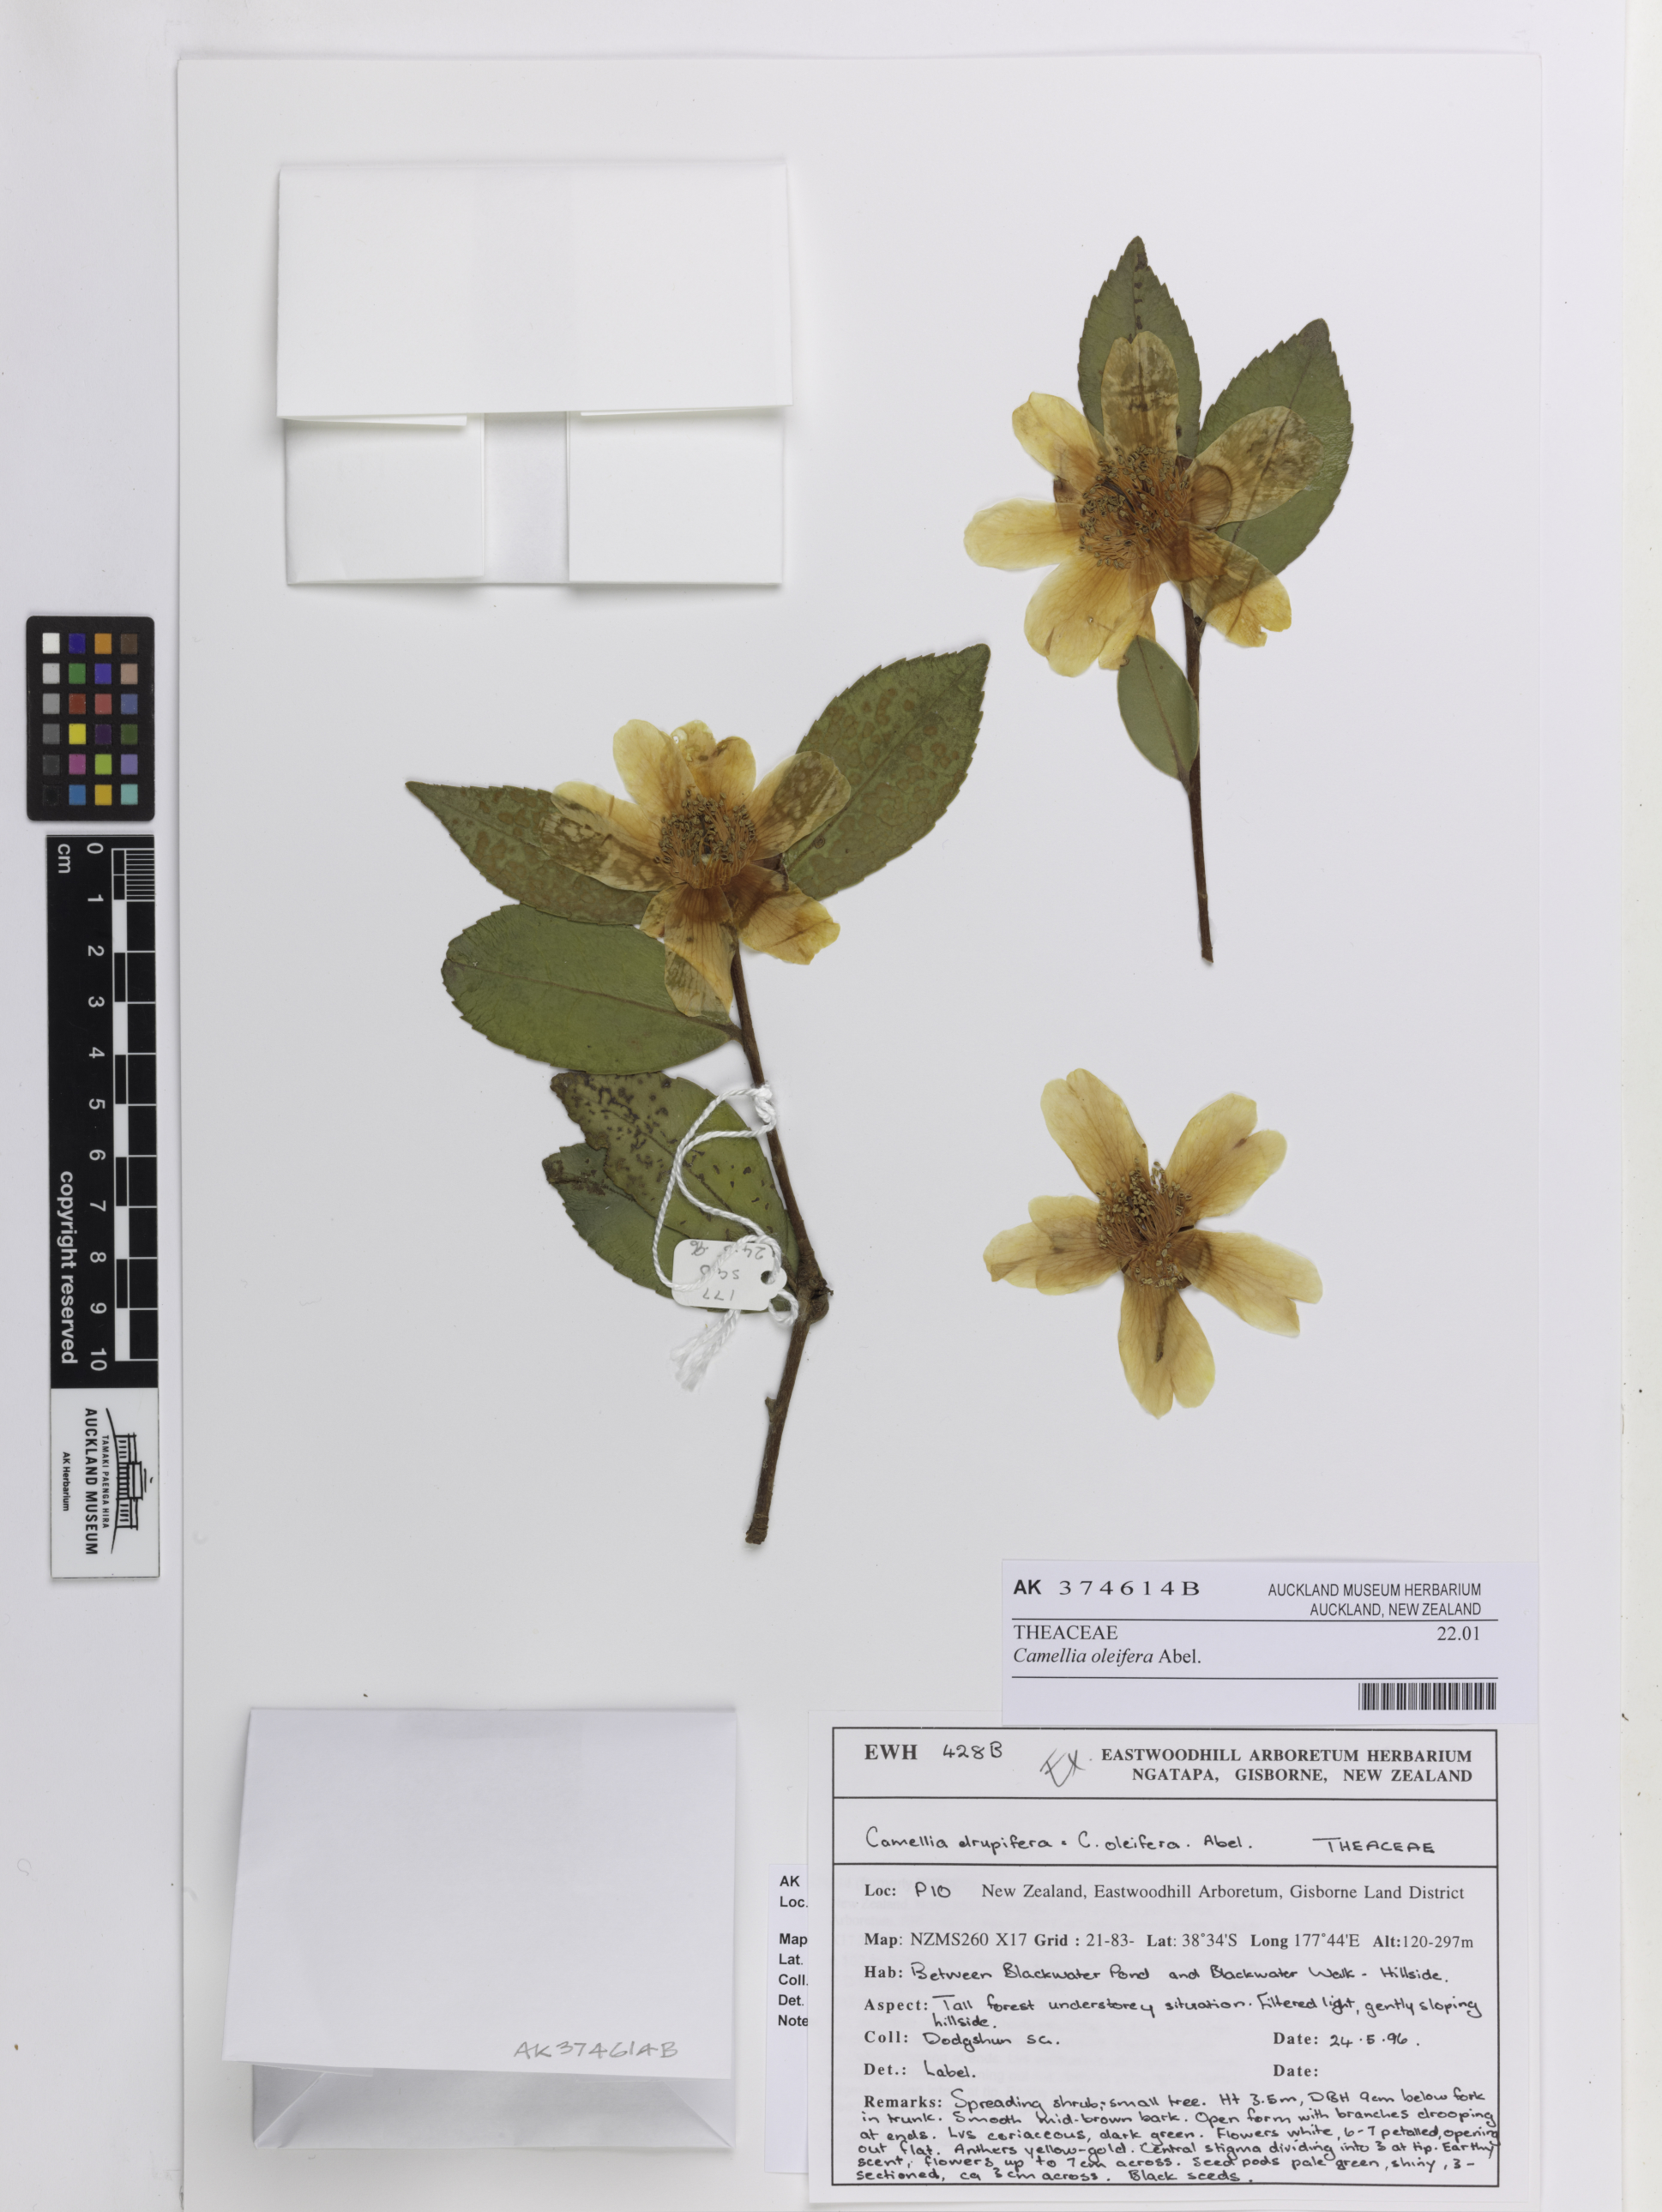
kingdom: Plantae
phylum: Tracheophyta
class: Magnoliopsida
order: Ericales
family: Theaceae
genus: Camellia
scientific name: Camellia oleifera
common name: Tea-oil-plant
